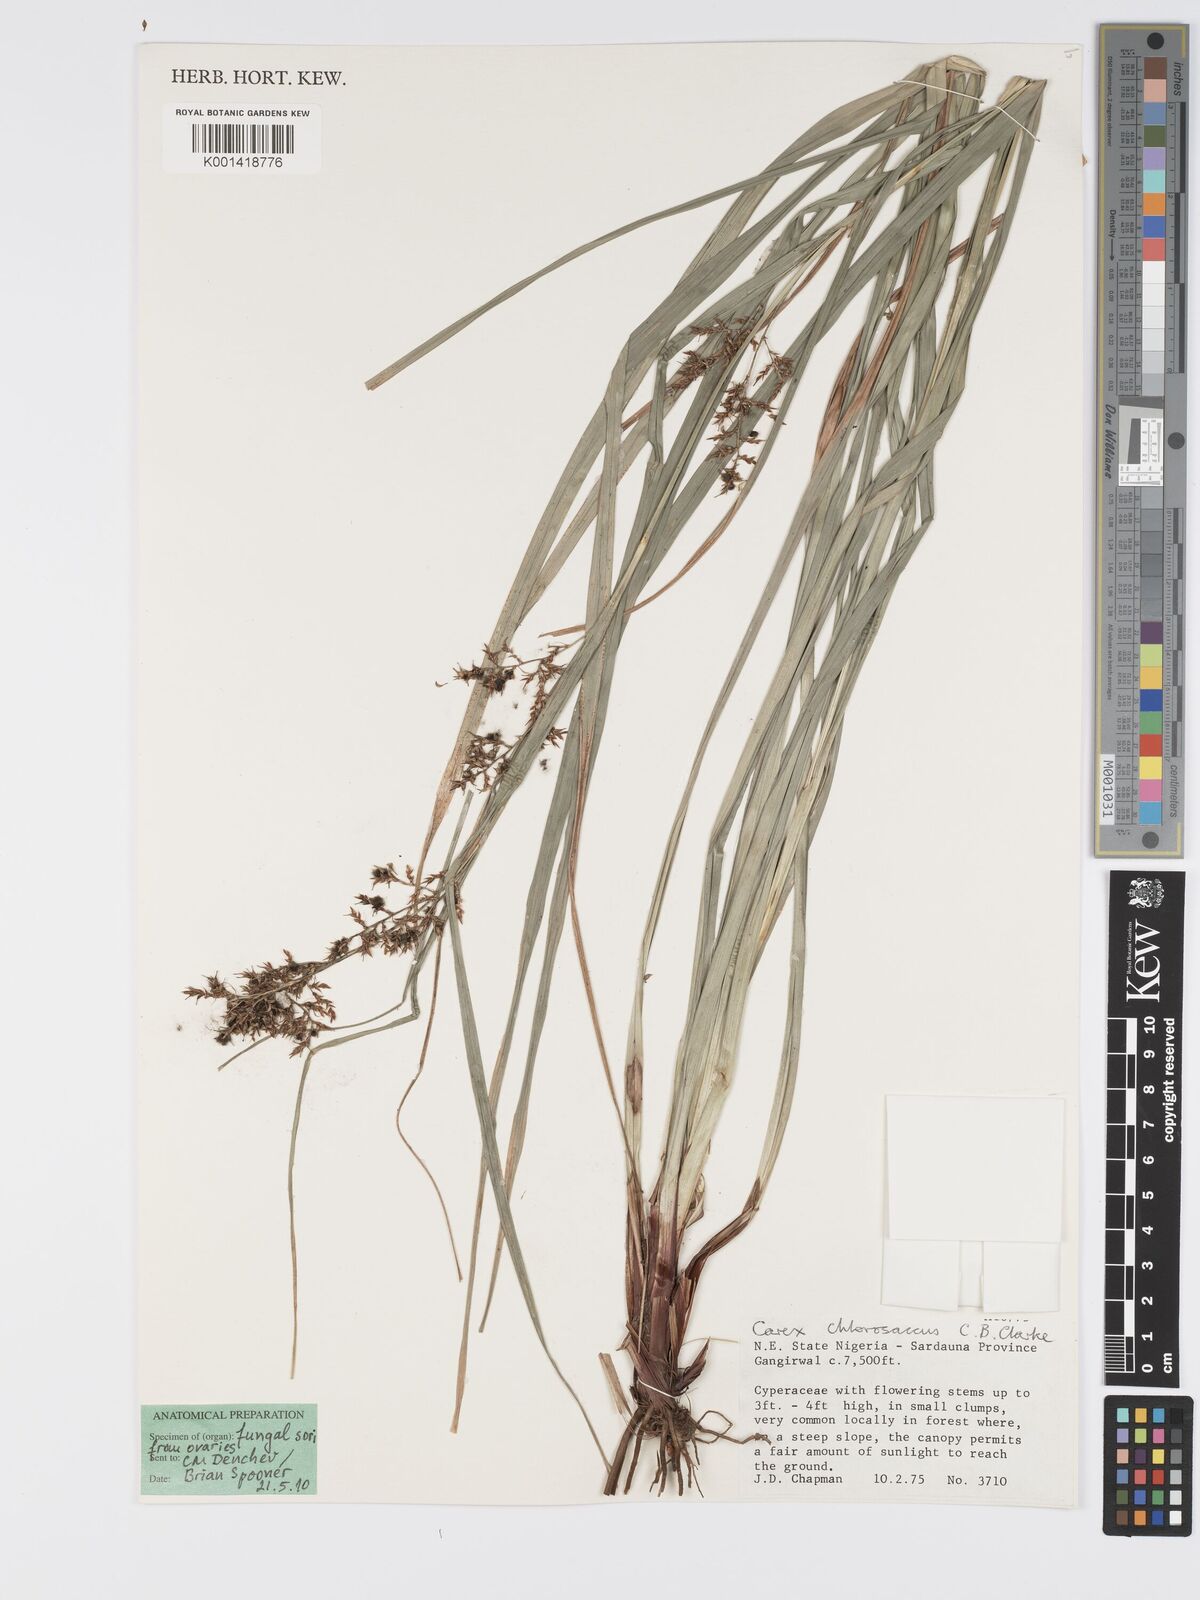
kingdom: Plantae
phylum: Tracheophyta
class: Liliopsida
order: Poales
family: Cyperaceae
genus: Carex
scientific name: Carex chlorosaccus
